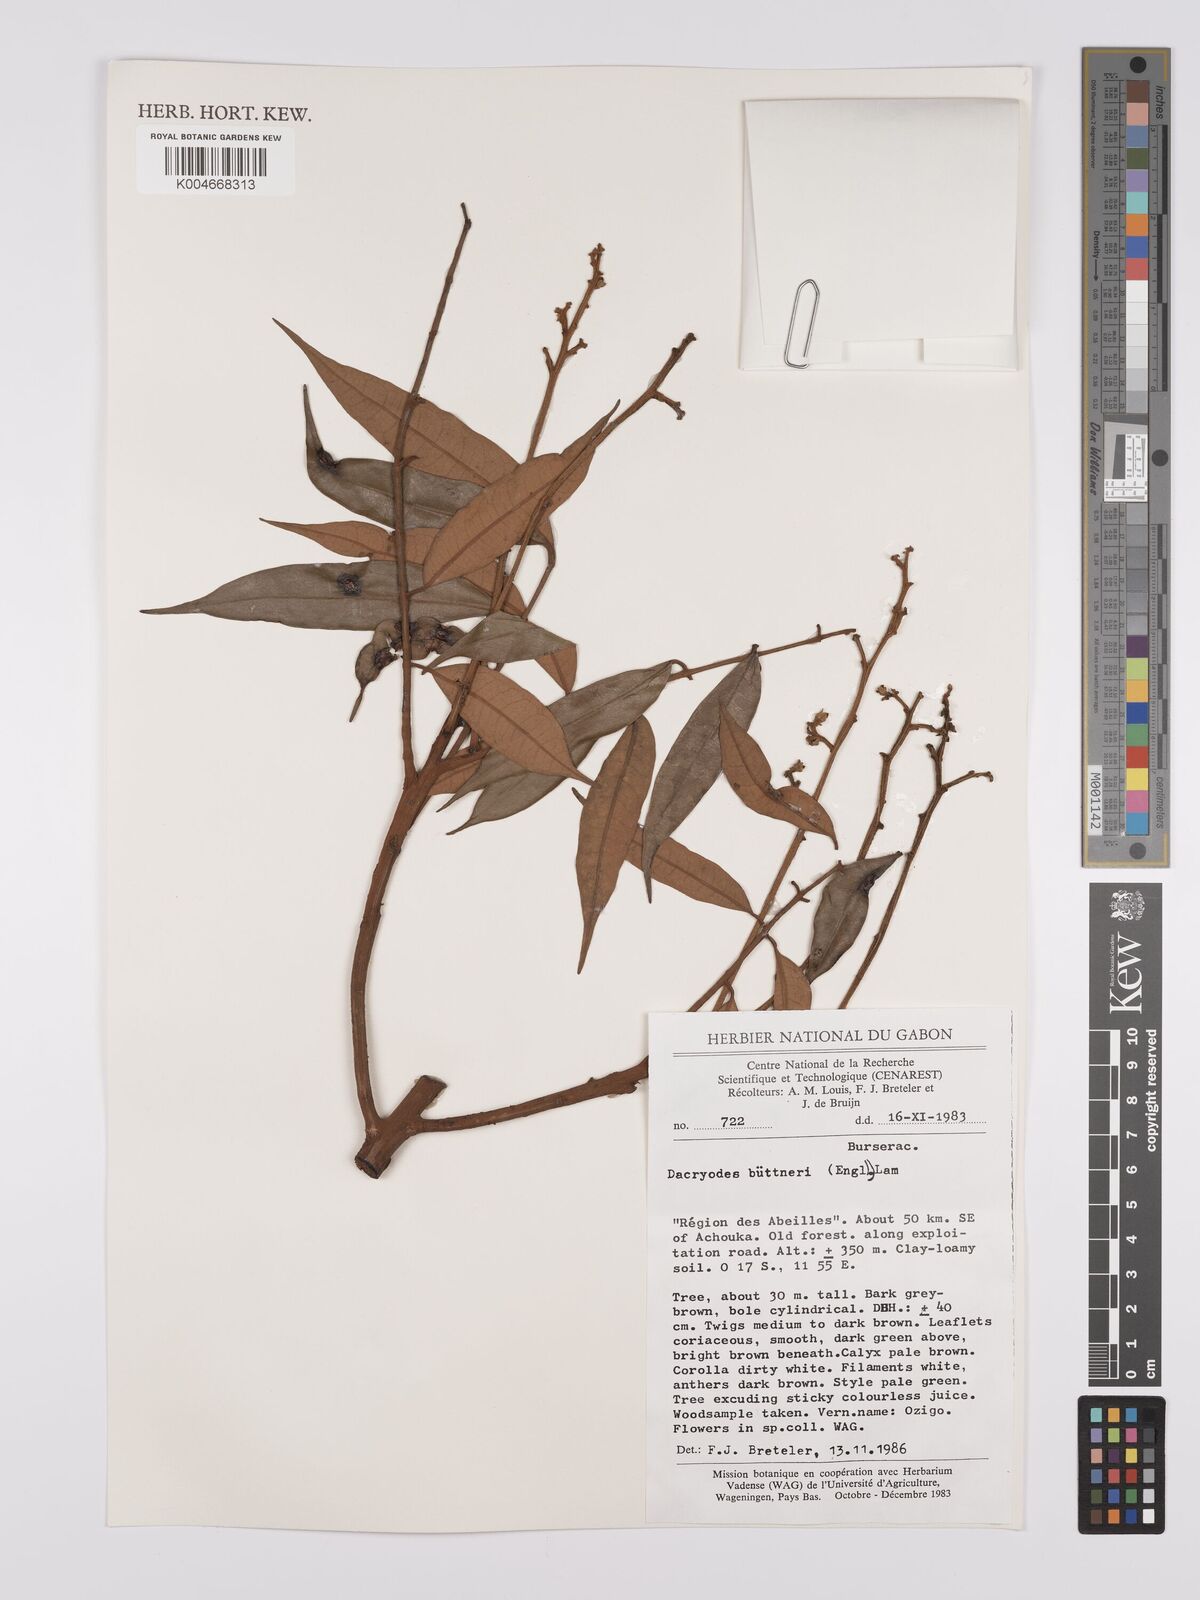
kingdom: Plantae
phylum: Tracheophyta
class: Magnoliopsida
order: Sapindales
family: Burseraceae
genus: Pachylobus
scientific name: Pachylobus buettneri
